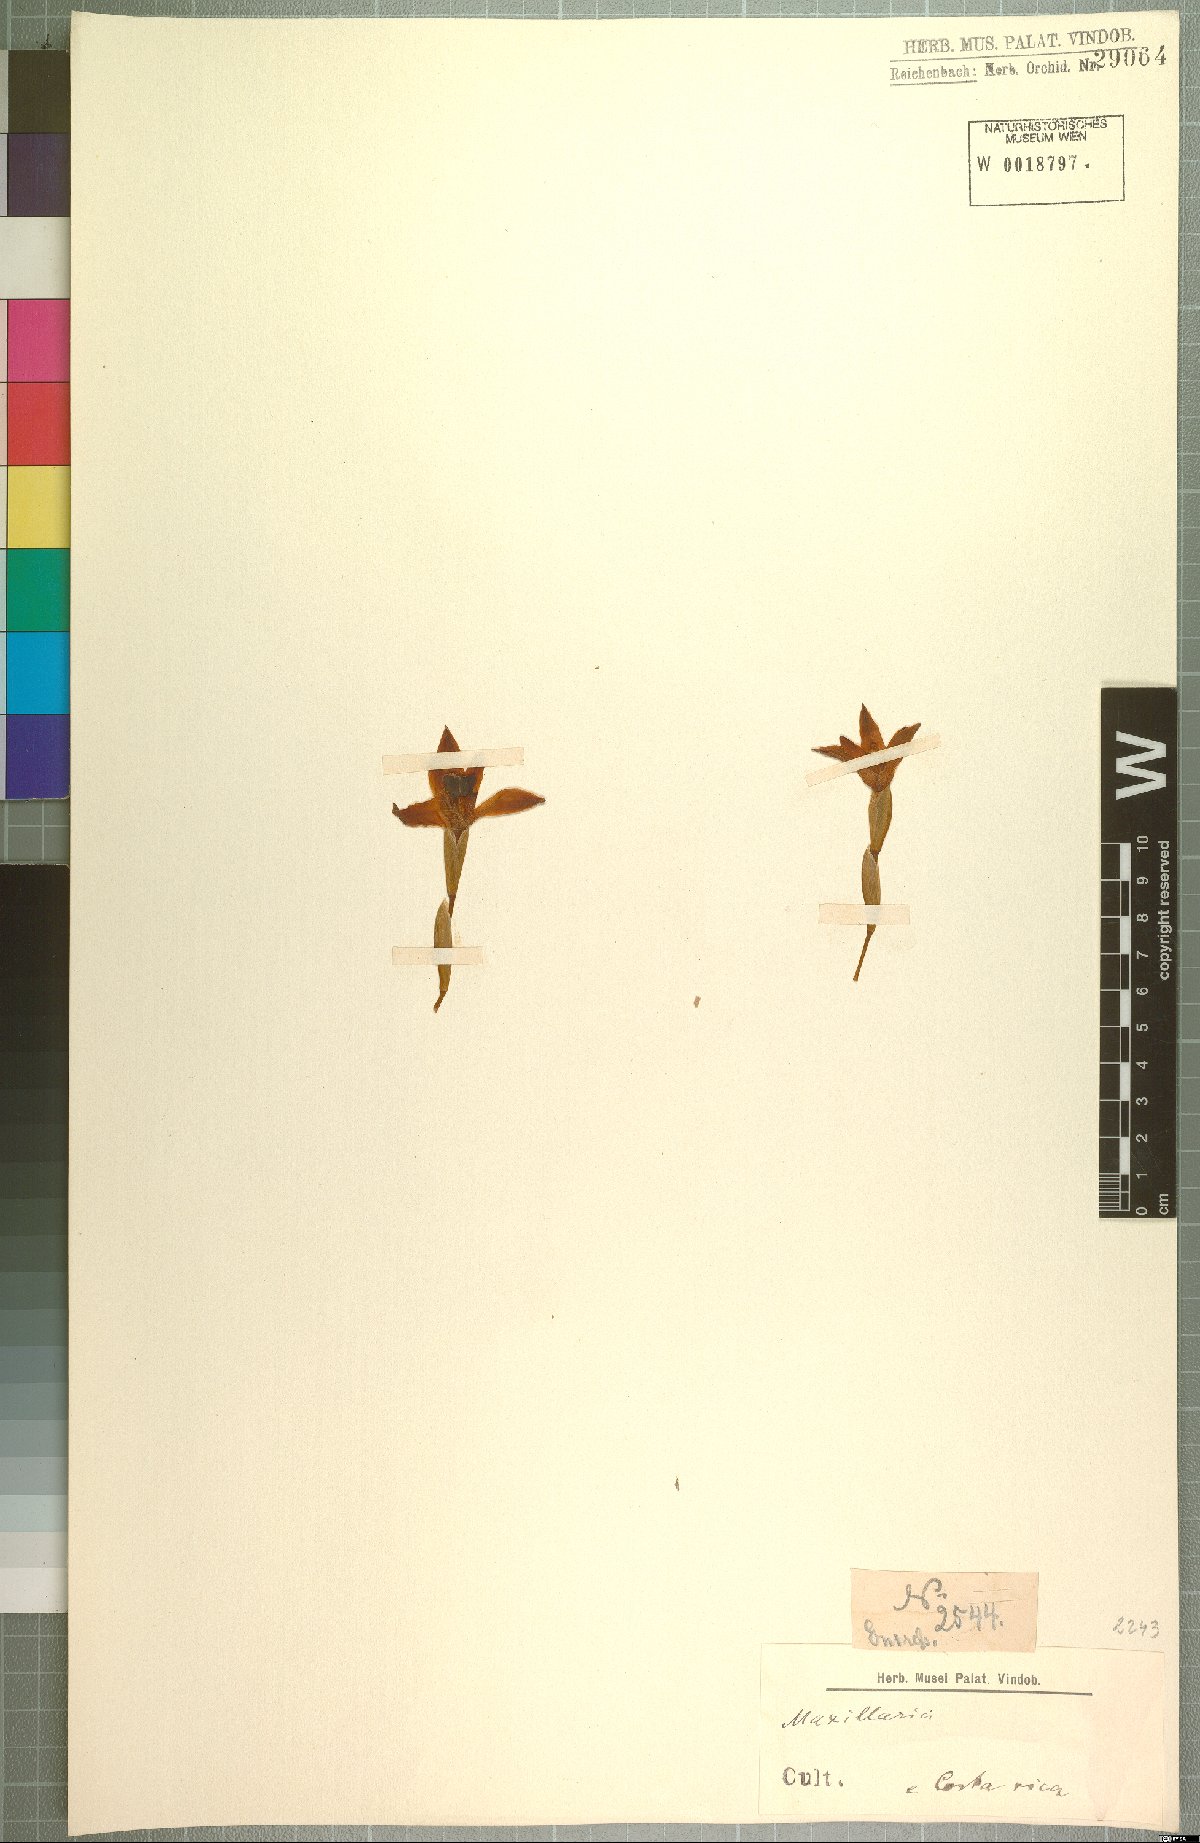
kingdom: Plantae
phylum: Tracheophyta
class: Liliopsida
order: Asparagales
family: Orchidaceae
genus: Maxillaria
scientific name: Maxillaria
